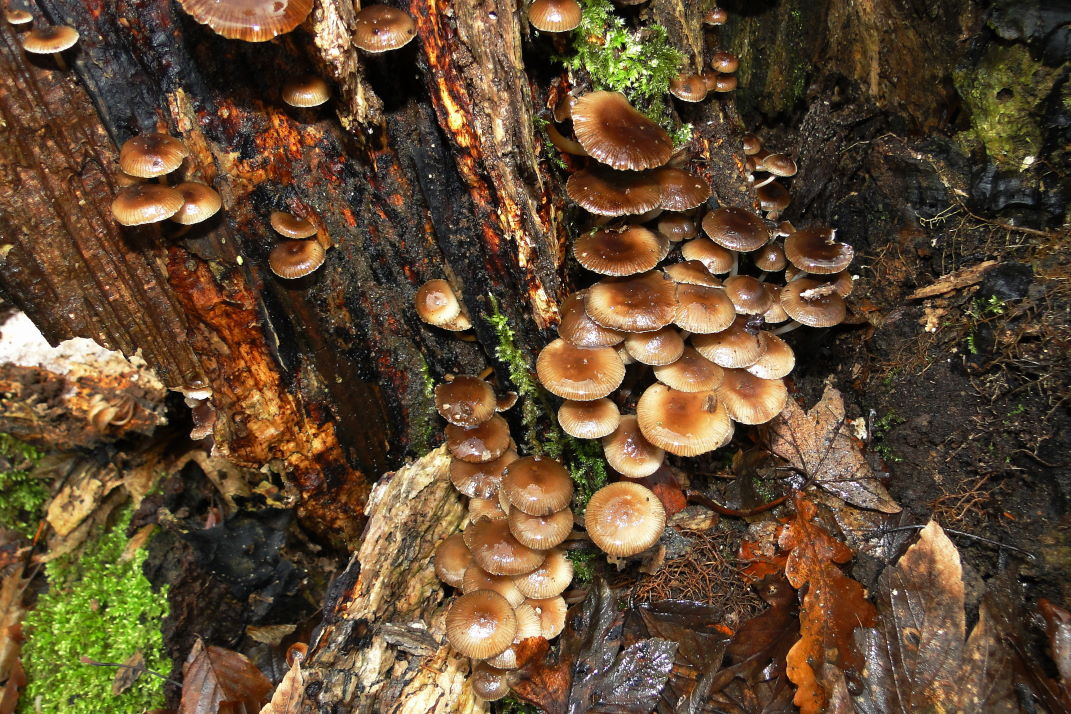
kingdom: Fungi
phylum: Basidiomycota
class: Agaricomycetes
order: Agaricales
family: Mycenaceae
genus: Mycena
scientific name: Mycena tintinnabulum
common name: vinter-huesvamp
